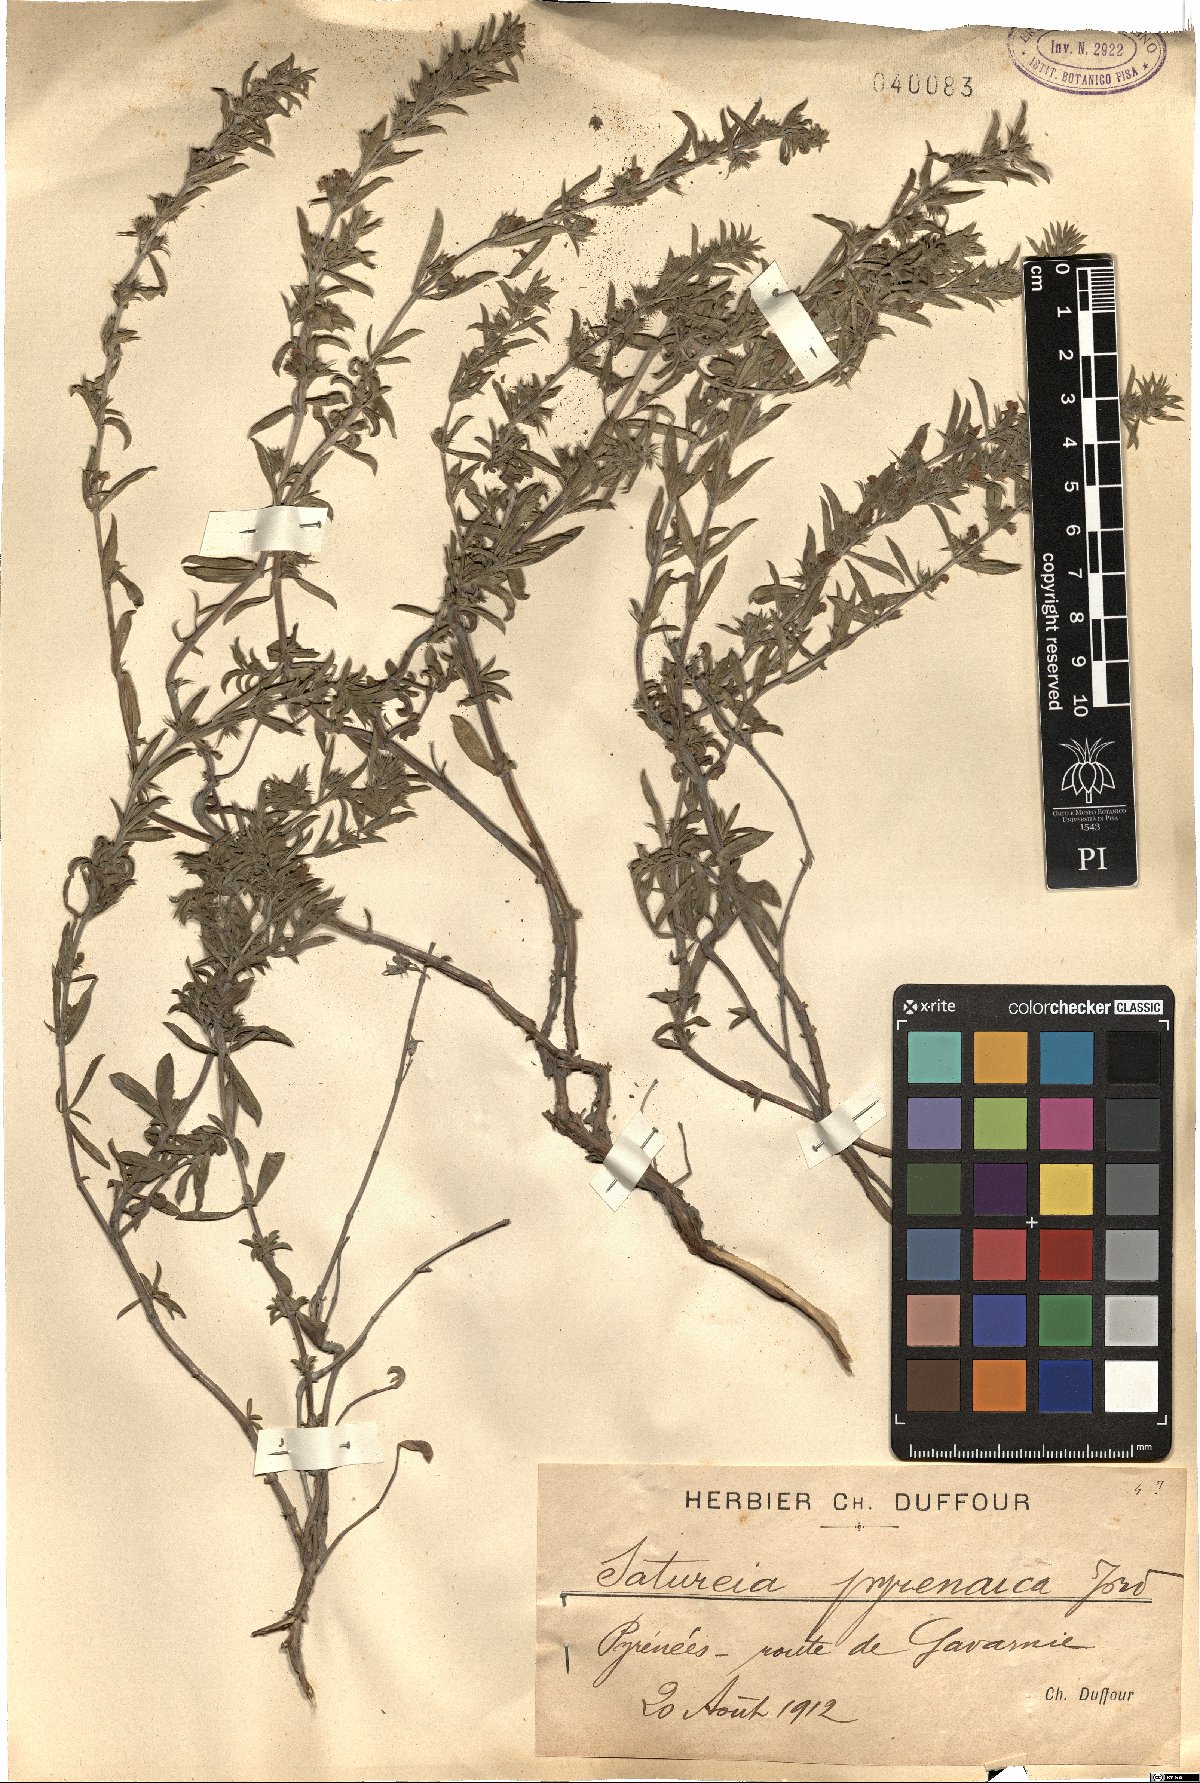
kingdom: Plantae
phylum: Tracheophyta
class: Magnoliopsida
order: Lamiales
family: Lamiaceae
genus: Satureja
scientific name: Satureja montana
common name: Winter savory
